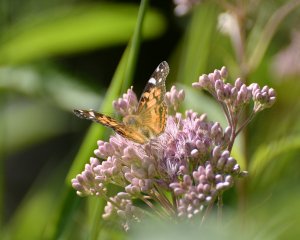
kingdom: Animalia
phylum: Arthropoda
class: Insecta
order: Lepidoptera
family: Nymphalidae
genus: Vanessa
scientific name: Vanessa virginiensis
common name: American Lady
